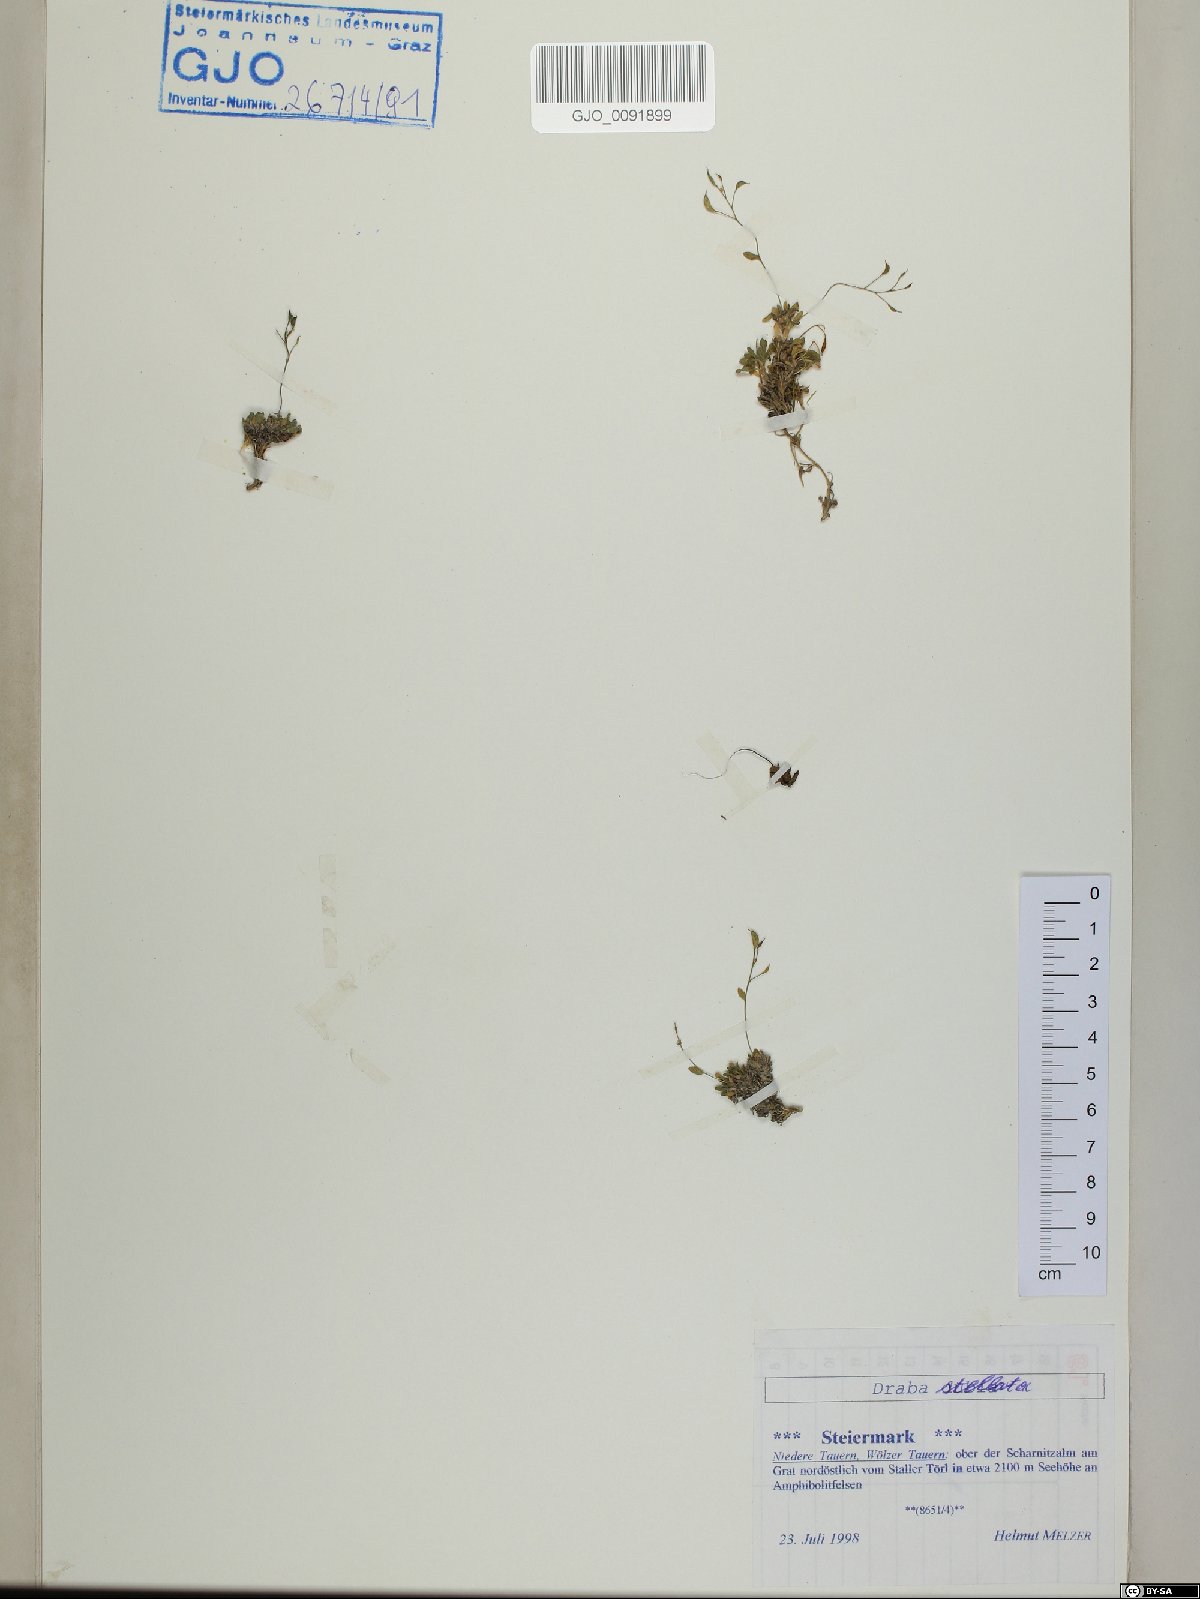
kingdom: Plantae
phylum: Tracheophyta
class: Magnoliopsida
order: Brassicales
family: Brassicaceae
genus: Draba
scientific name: Draba stellata
